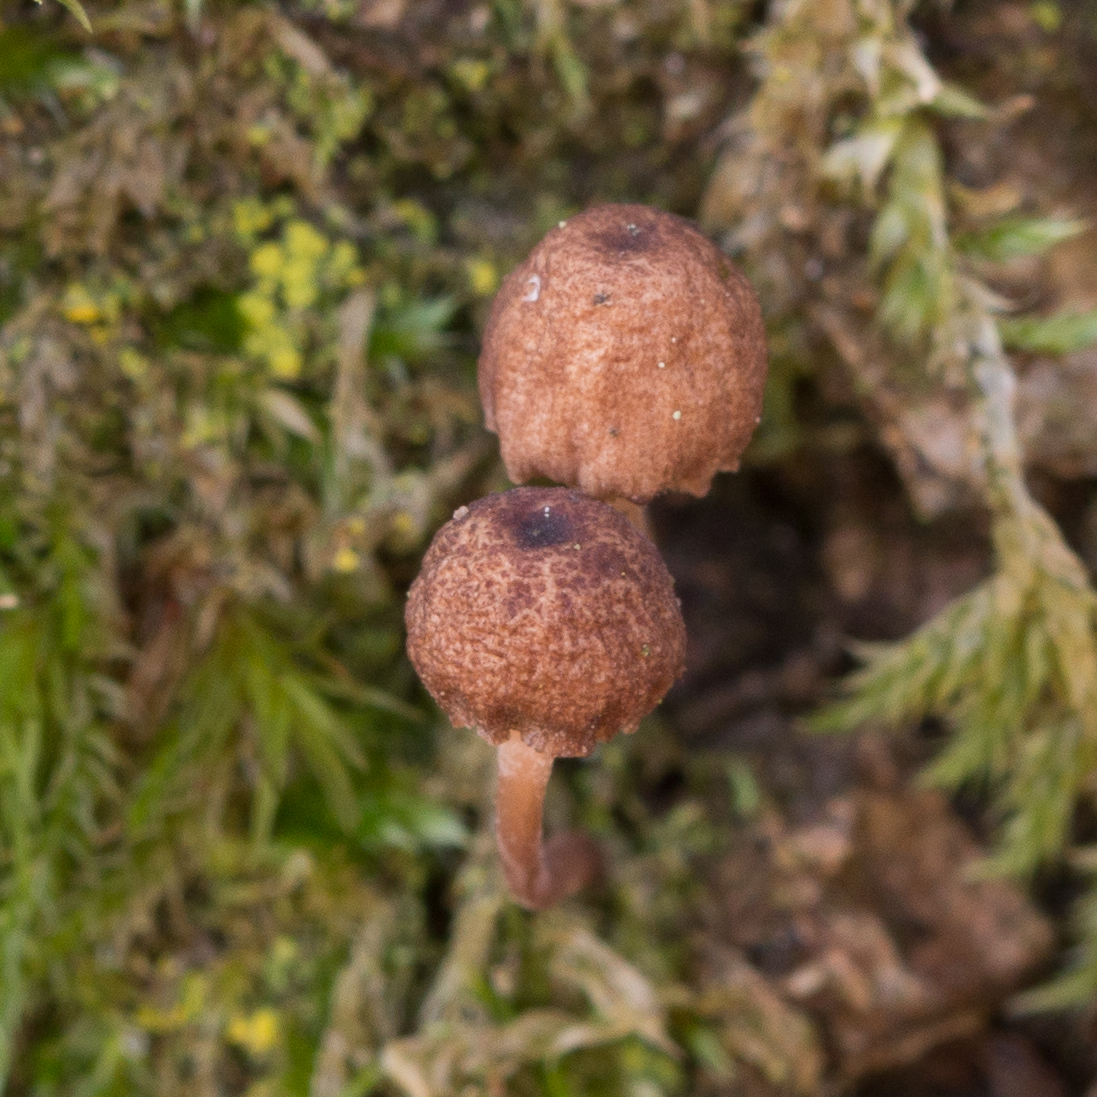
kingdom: Fungi
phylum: Basidiomycota
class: Agaricomycetes
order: Agaricales
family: Mycenaceae
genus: Mycena
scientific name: Mycena meliigena
